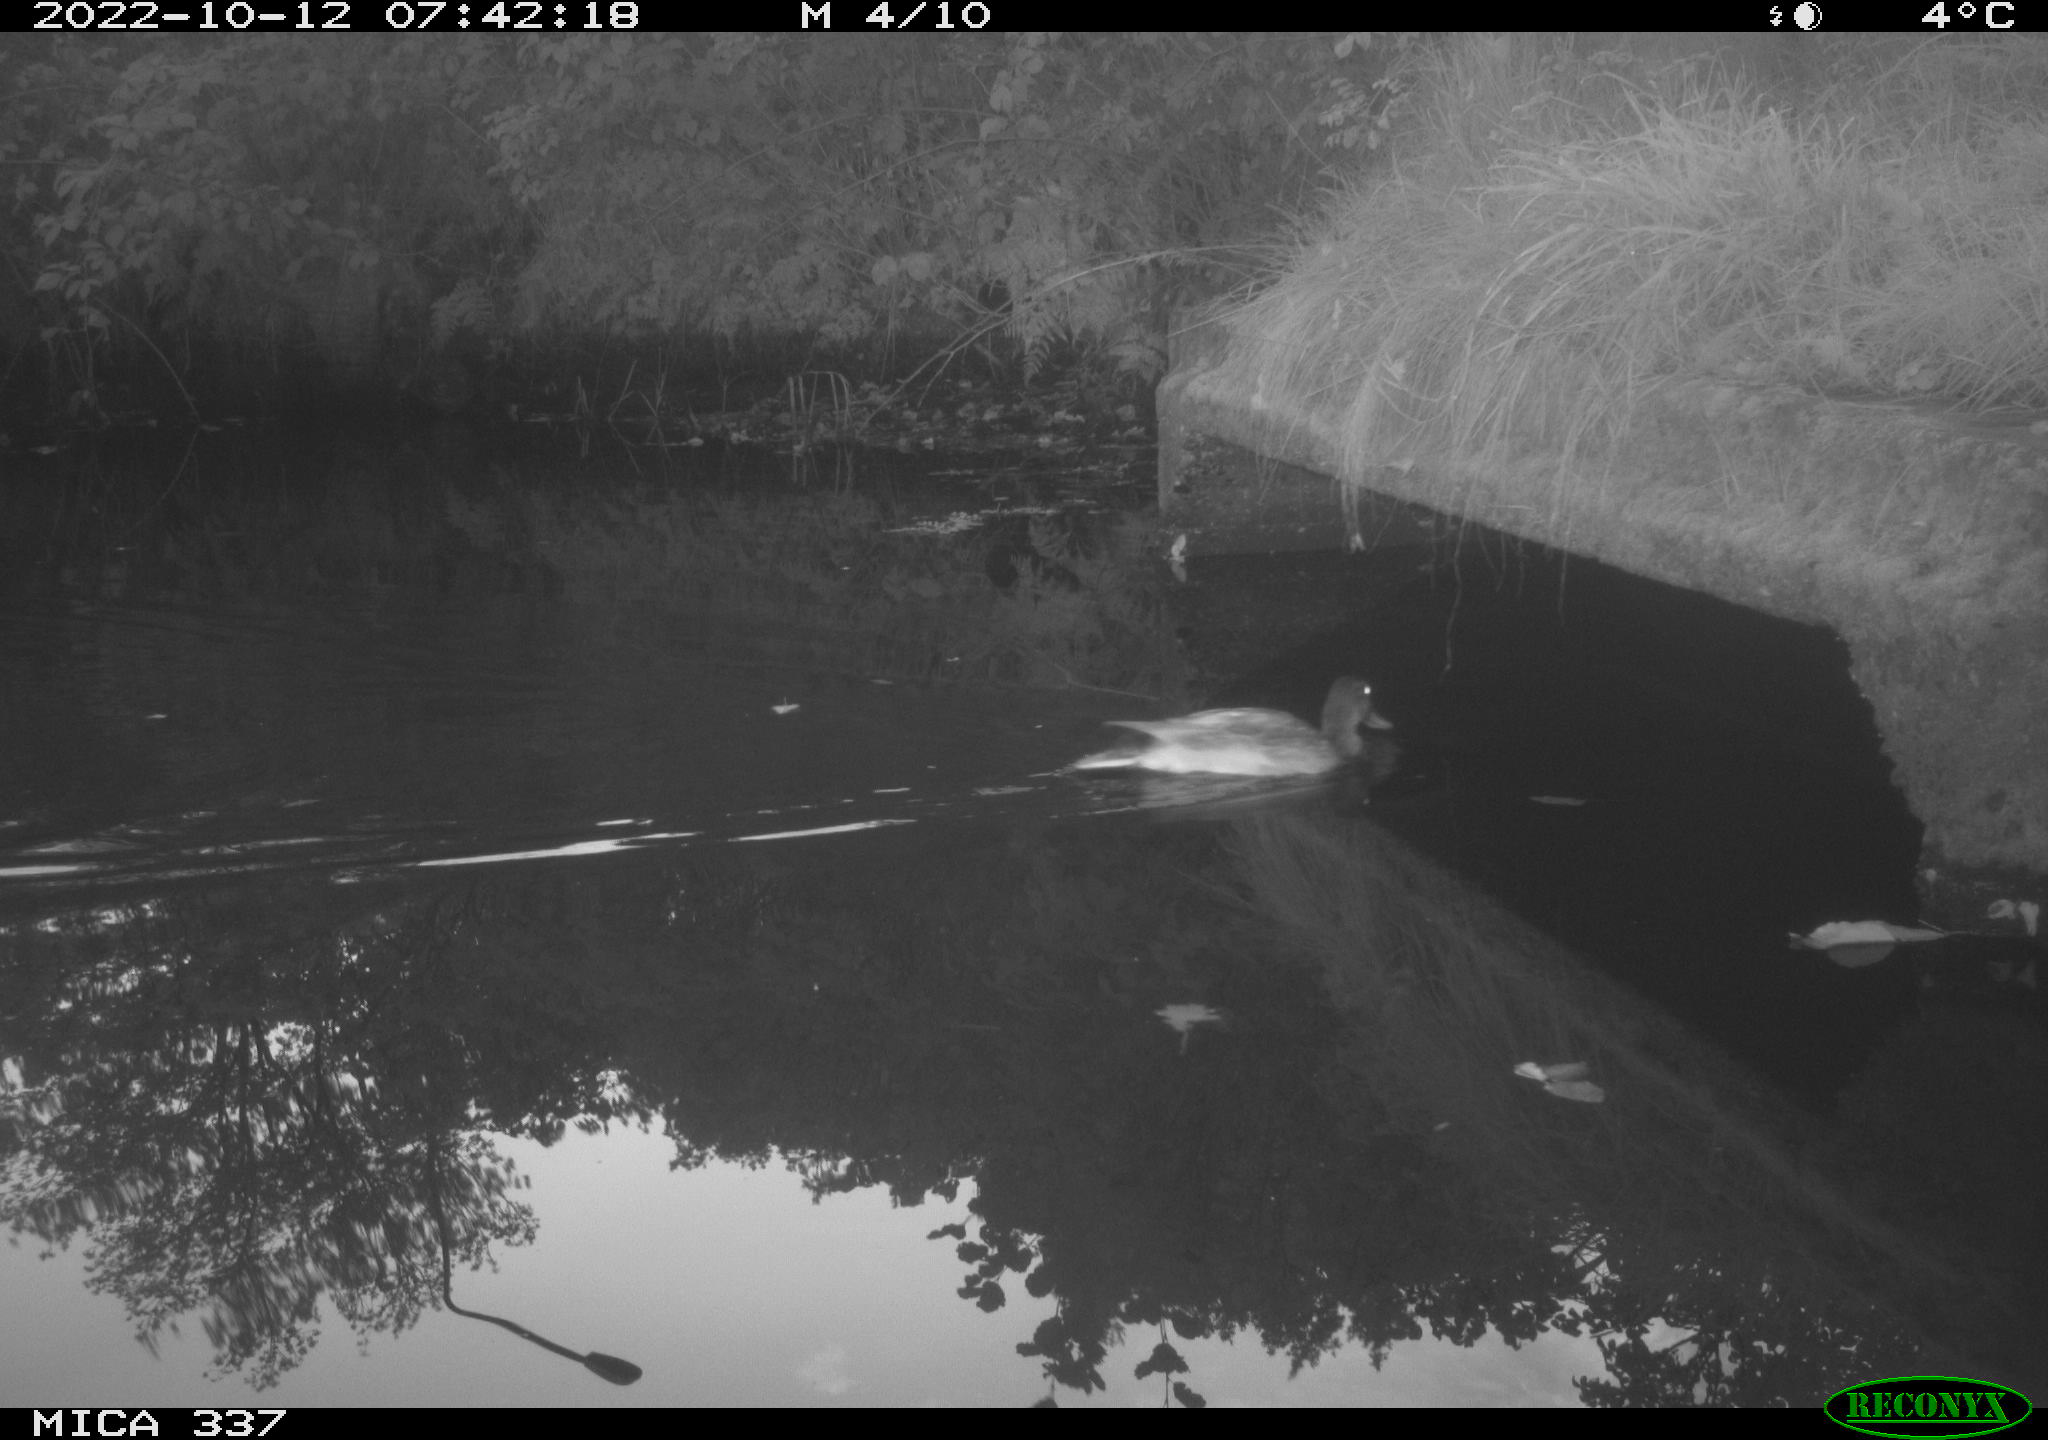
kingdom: Animalia
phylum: Chordata
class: Aves
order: Anseriformes
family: Anatidae
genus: Anas
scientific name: Anas platyrhynchos
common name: Mallard
